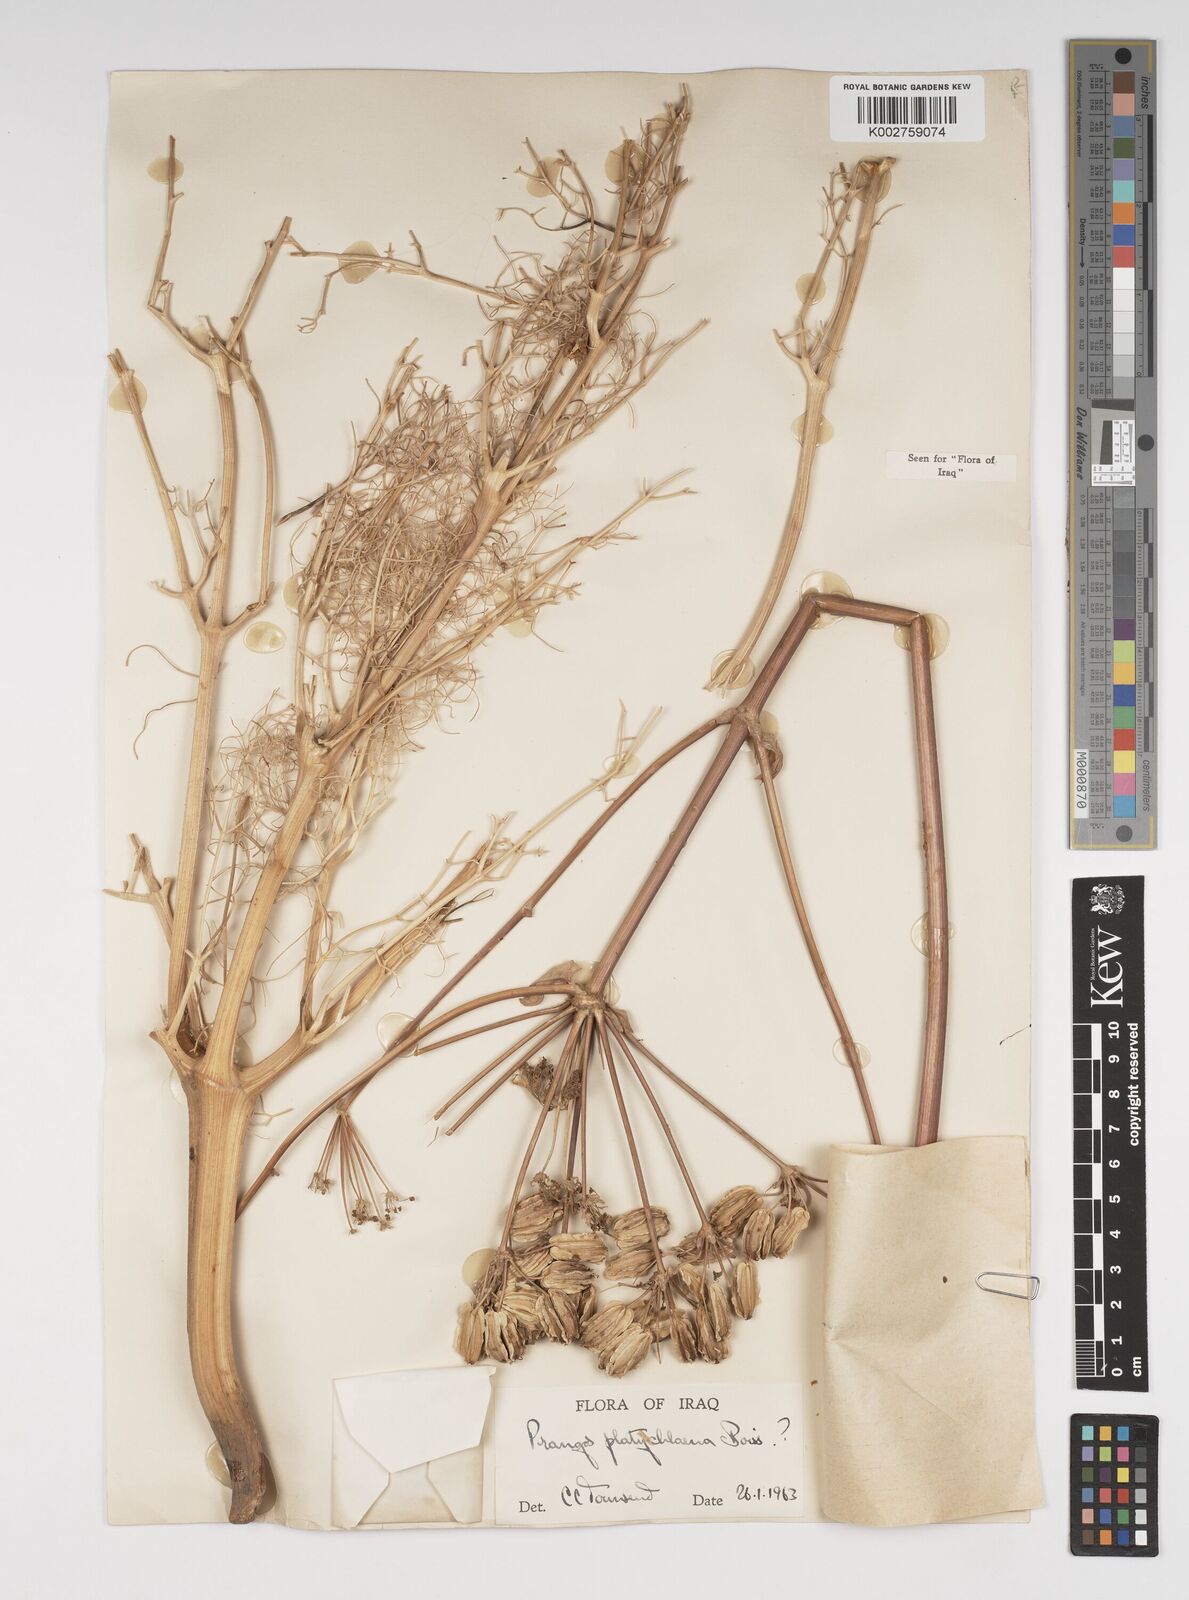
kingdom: Plantae
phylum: Tracheophyta
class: Magnoliopsida
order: Apiales
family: Apiaceae
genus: Prangos
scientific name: Prangos platychlaena
